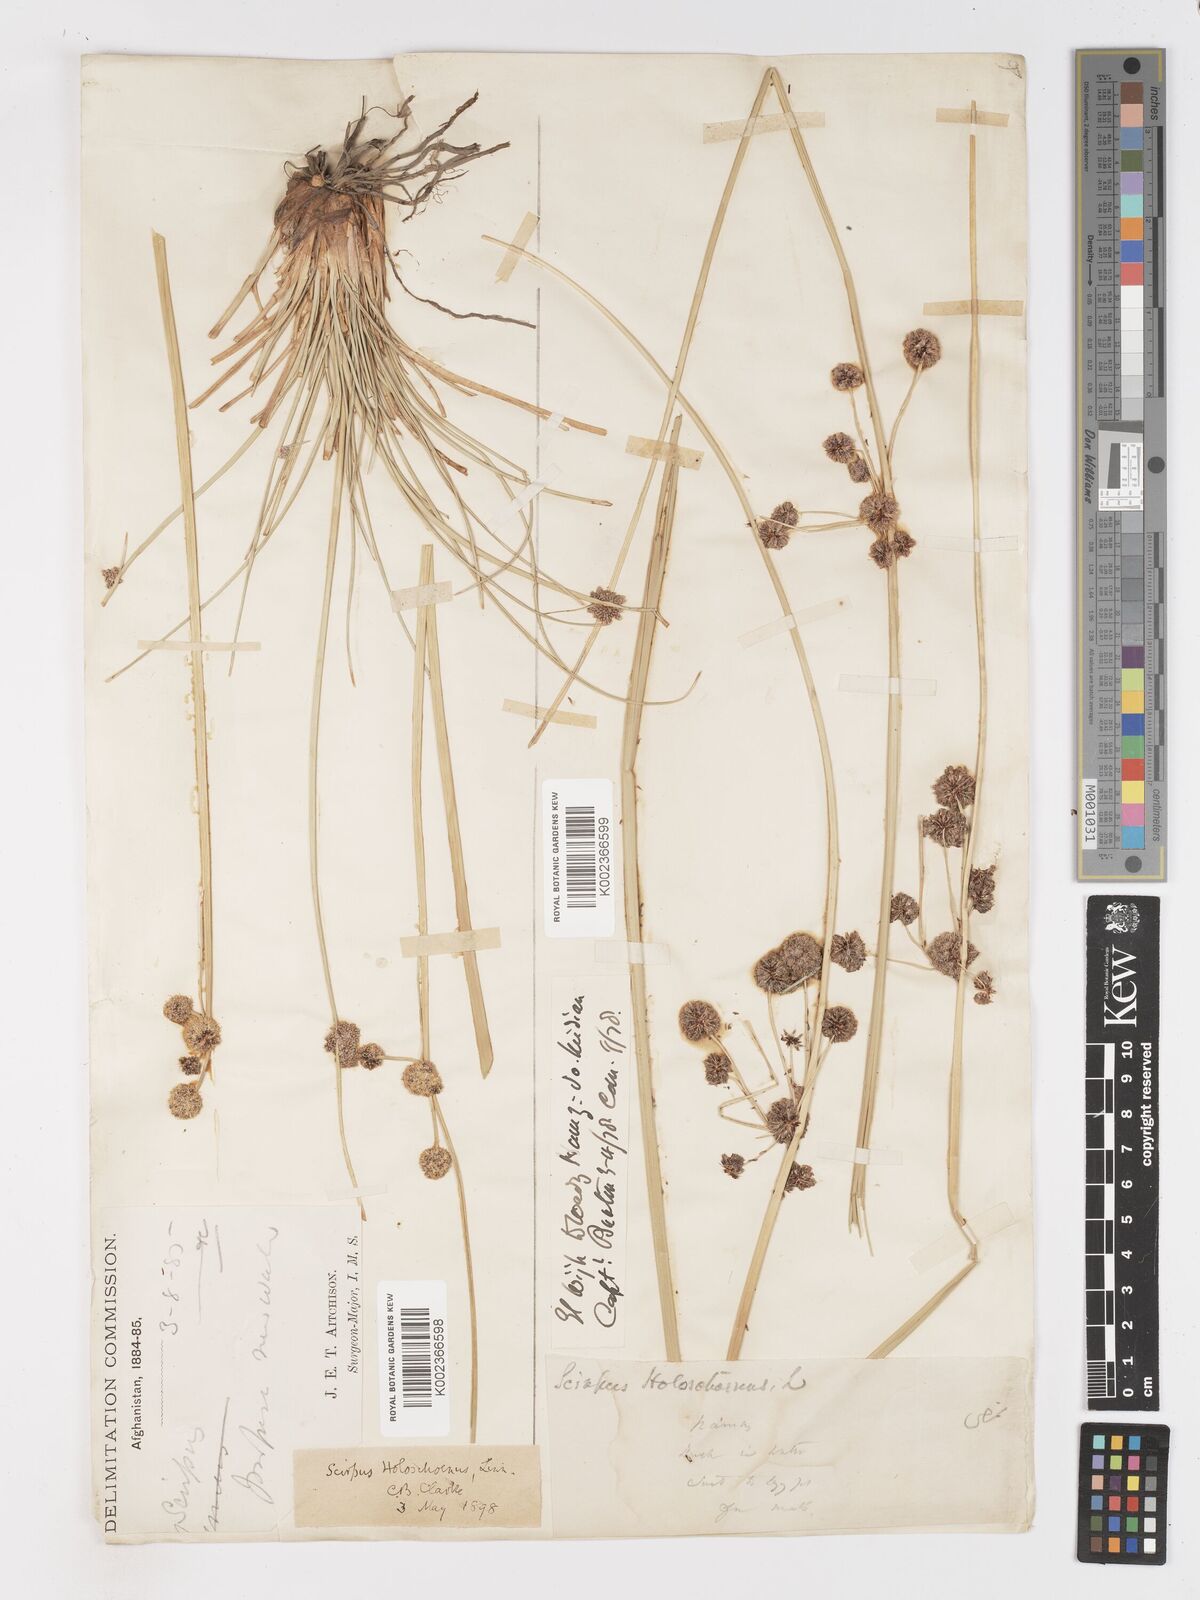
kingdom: Plantae
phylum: Tracheophyta
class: Liliopsida
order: Poales
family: Cyperaceae
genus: Scirpoides
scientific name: Scirpoides holoschoenus
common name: Round-headed club-rush
